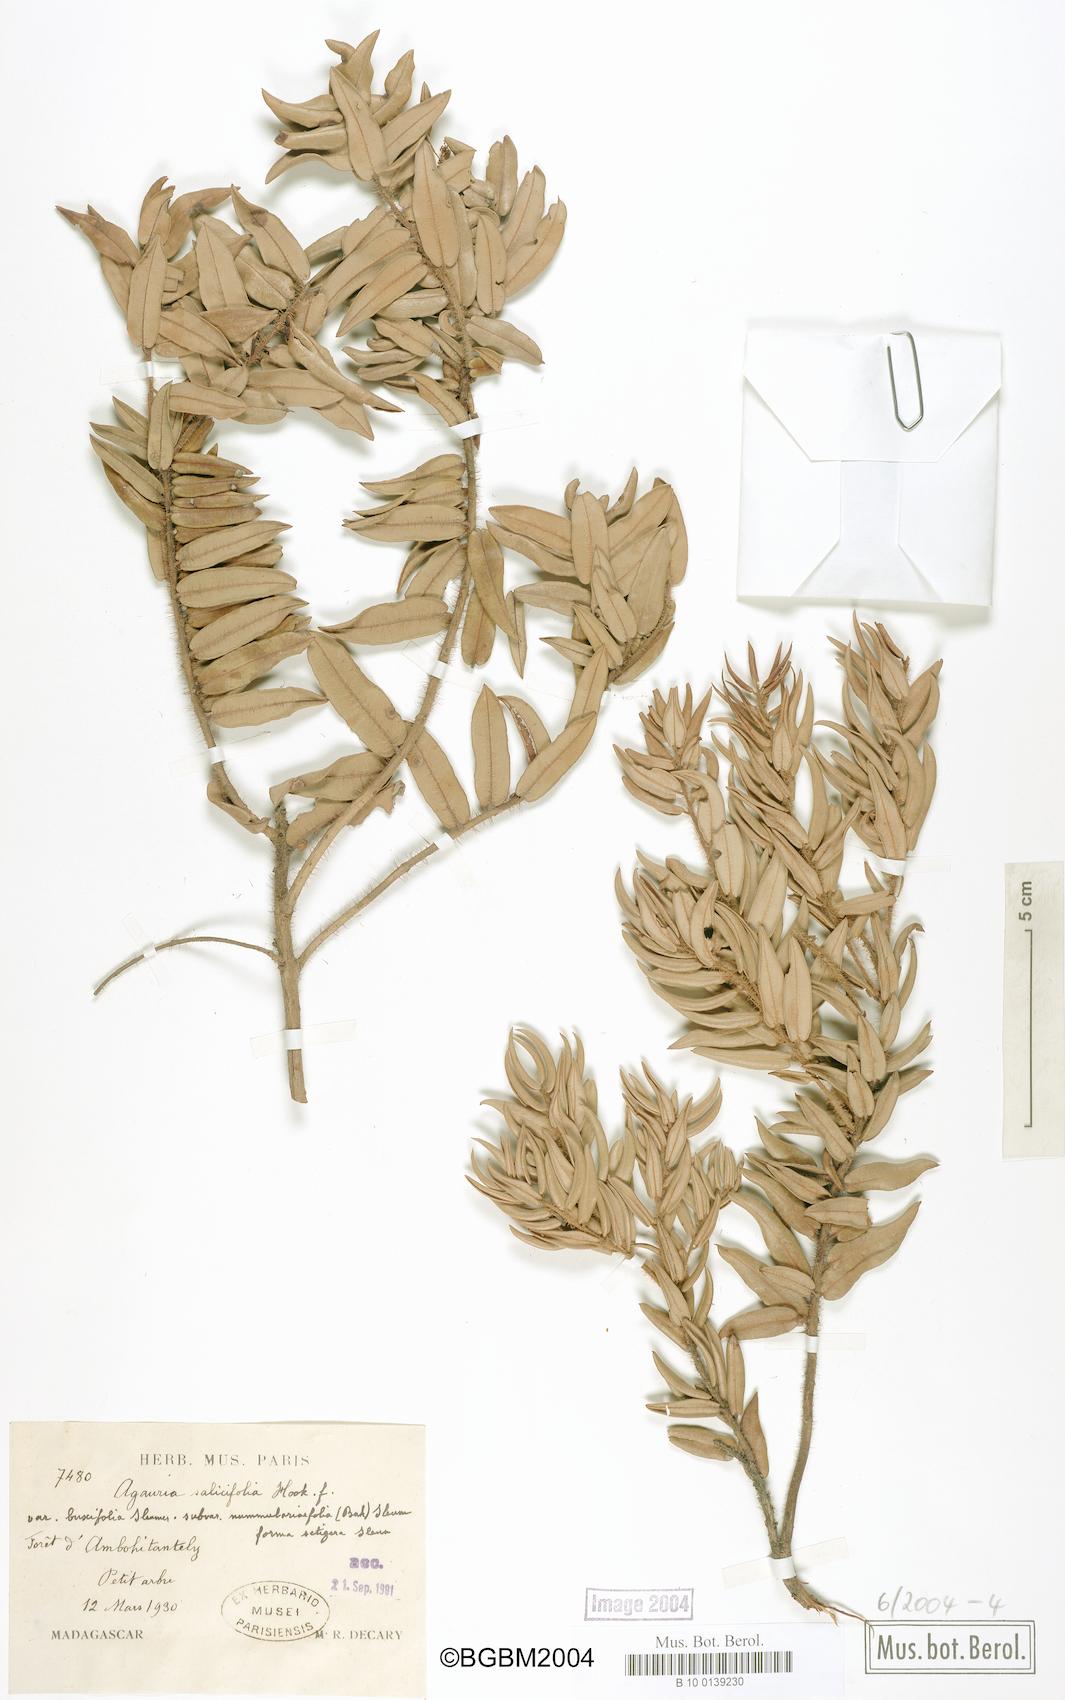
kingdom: Plantae
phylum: Tracheophyta
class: Magnoliopsida
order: Ericales
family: Ericaceae
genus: Agarista
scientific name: Agarista salicifolia
